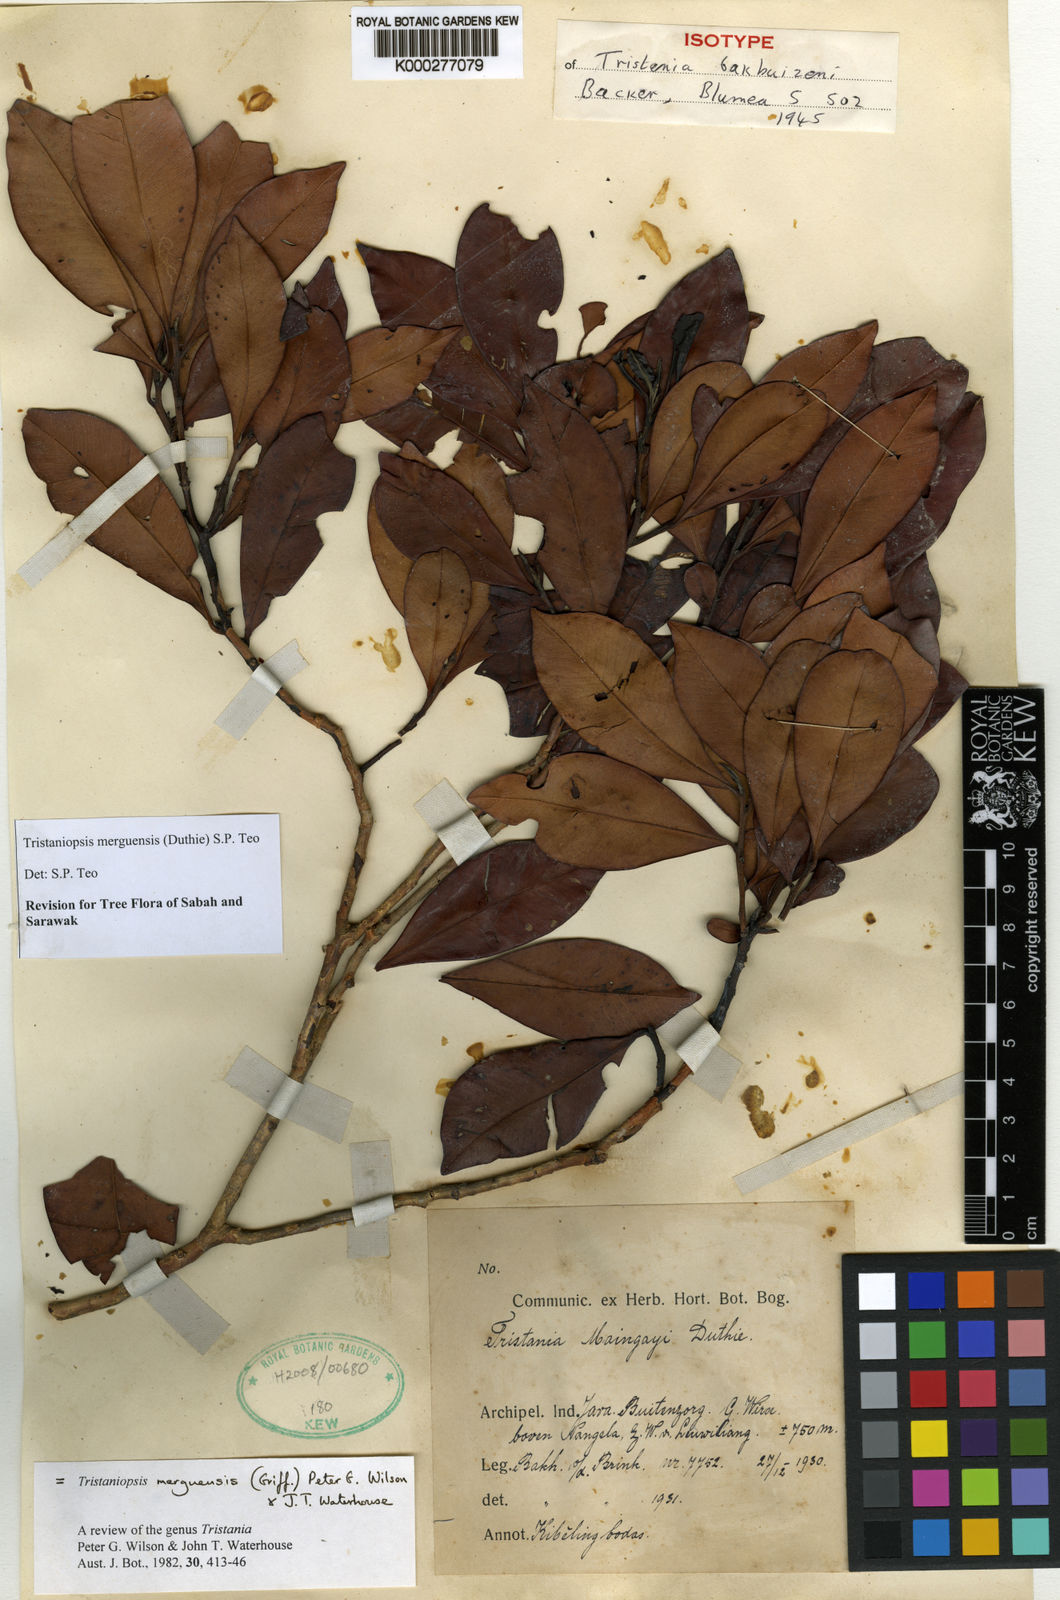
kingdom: Plantae
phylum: Tracheophyta
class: Magnoliopsida
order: Myrtales
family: Myrtaceae
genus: Tristaniopsis
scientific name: Tristaniopsis
